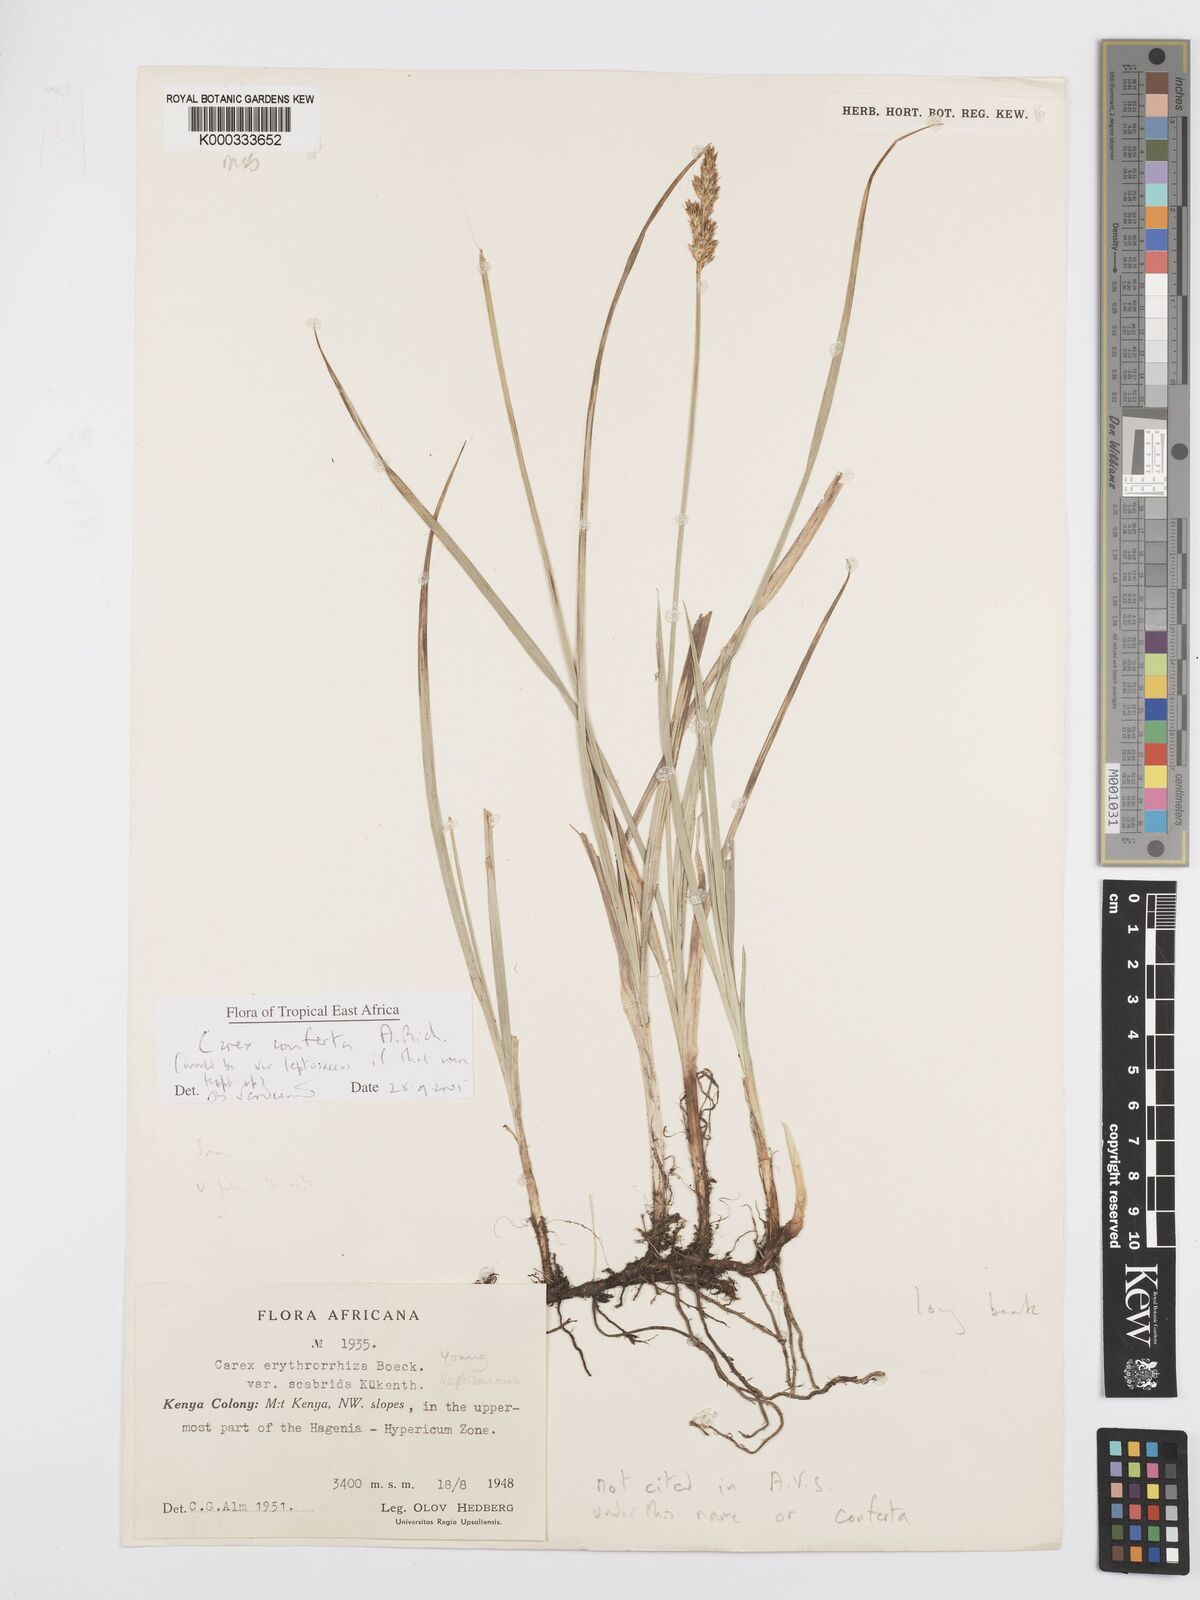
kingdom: Plantae
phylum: Tracheophyta
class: Liliopsida
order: Poales
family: Cyperaceae
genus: Carex
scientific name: Carex conferta
